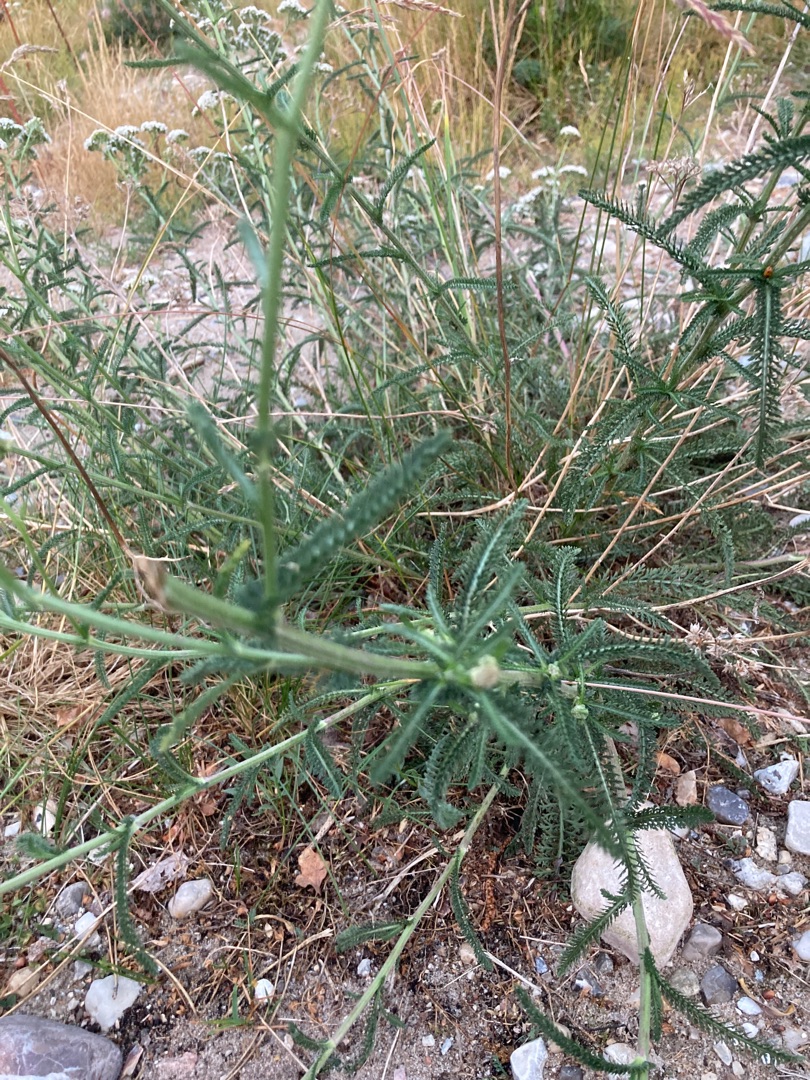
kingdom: Plantae
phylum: Tracheophyta
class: Magnoliopsida
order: Asterales
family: Asteraceae
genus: Achillea
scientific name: Achillea millefolium
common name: Almindelig røllike
